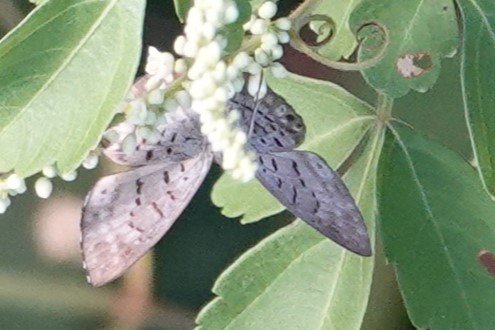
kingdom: Animalia
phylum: Arthropoda
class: Insecta
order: Lepidoptera
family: Riodinidae
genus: Hypophylla
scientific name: Hypophylla martia
